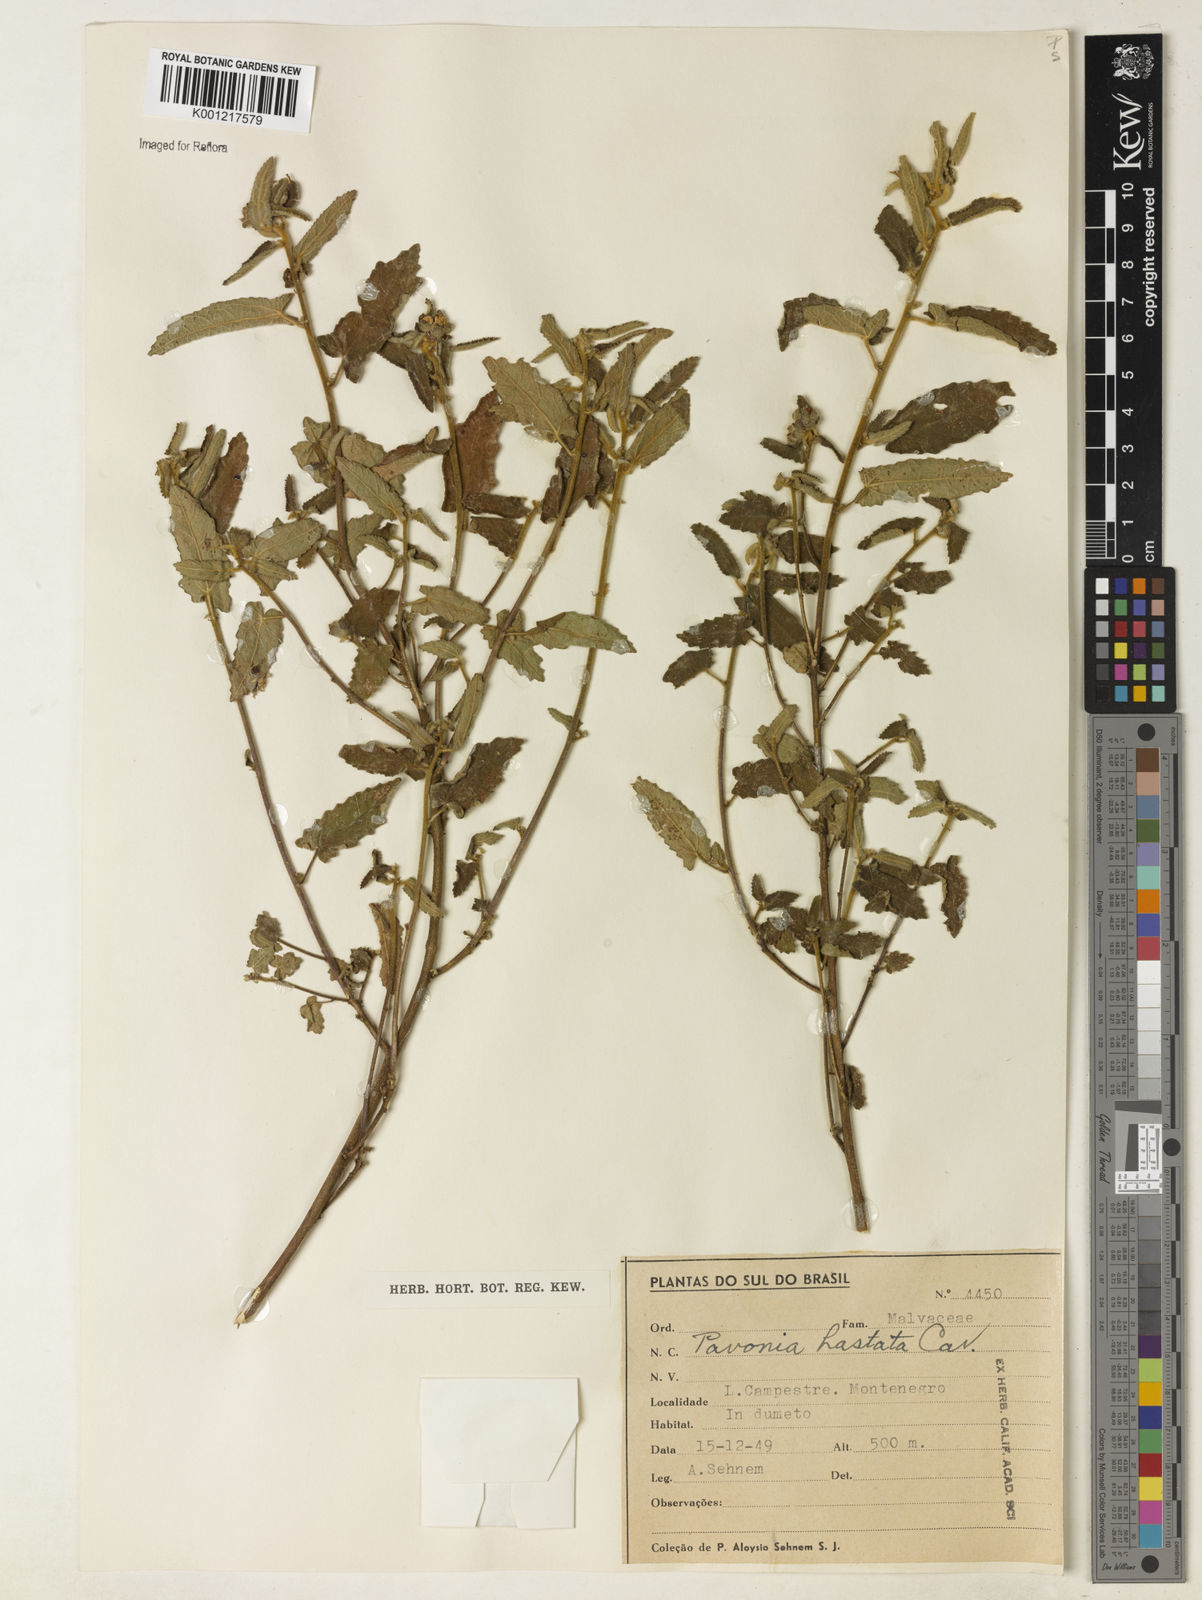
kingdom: Plantae
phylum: Tracheophyta
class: Magnoliopsida
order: Malvales
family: Malvaceae
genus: Pavonia
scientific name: Pavonia hastata
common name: Spearleaf swampmallow
